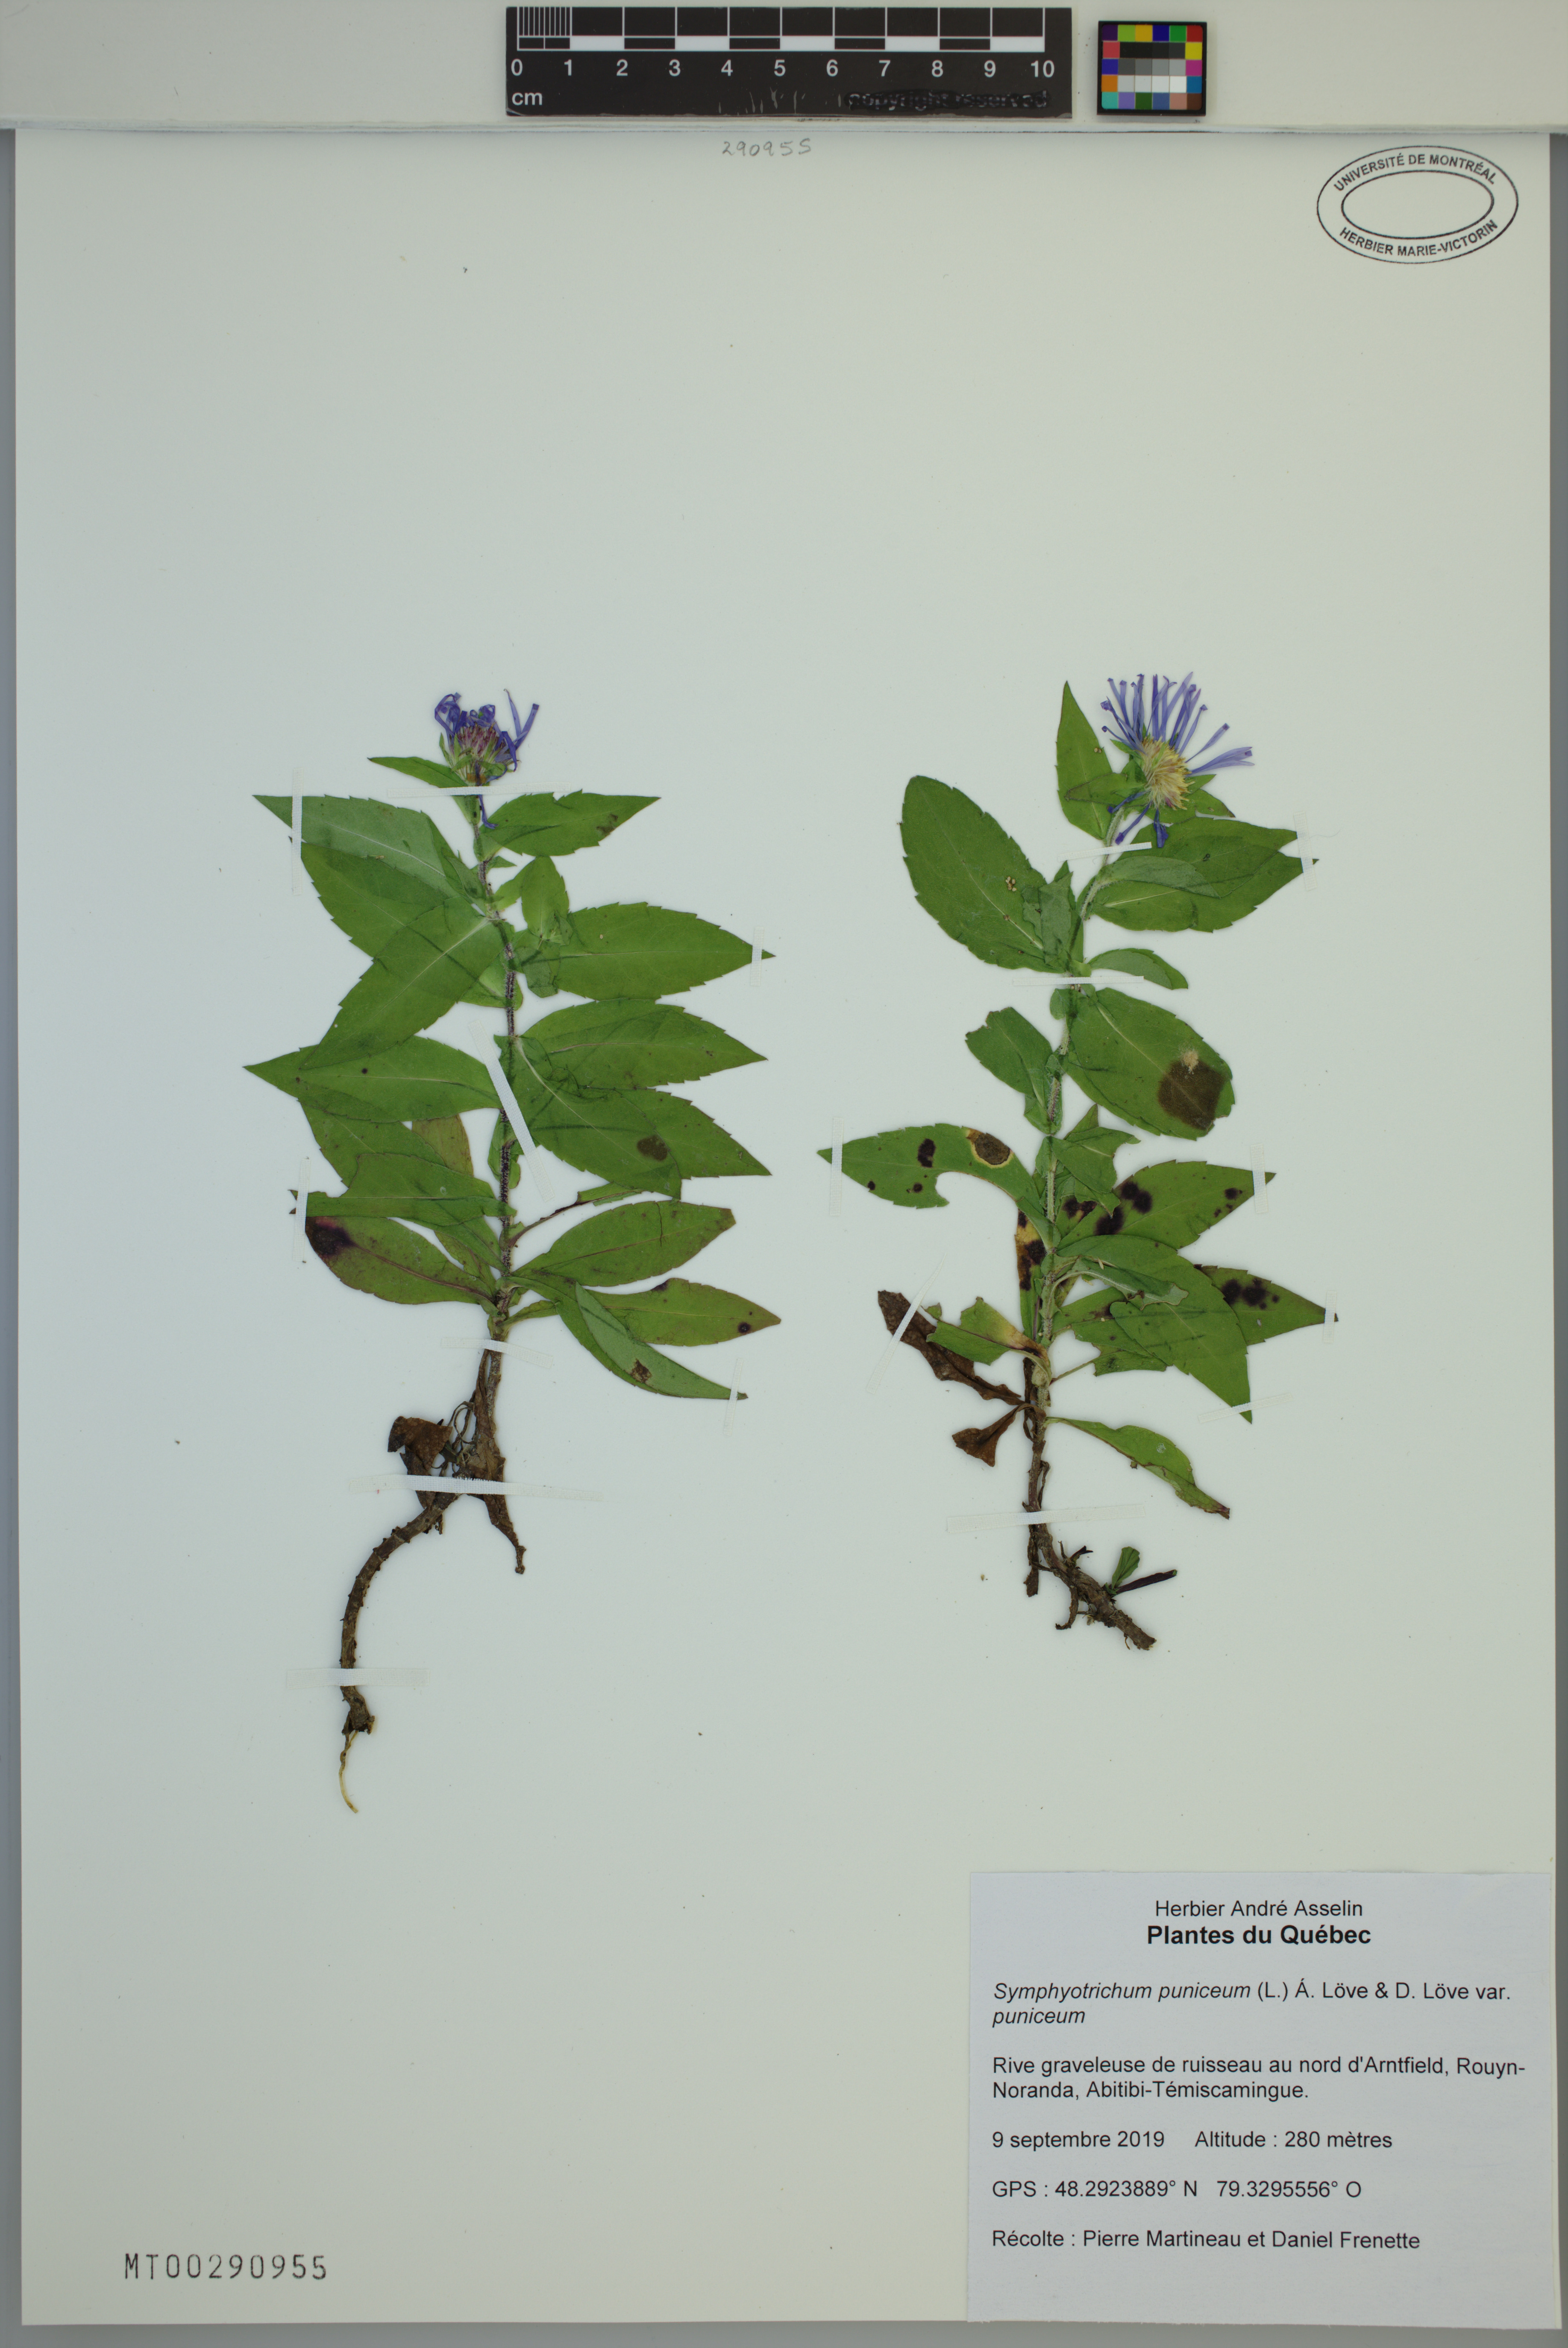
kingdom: Plantae
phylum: Tracheophyta
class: Magnoliopsida
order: Asterales
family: Asteraceae
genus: Symphyotrichum
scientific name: Symphyotrichum puniceum
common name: Bog aster
